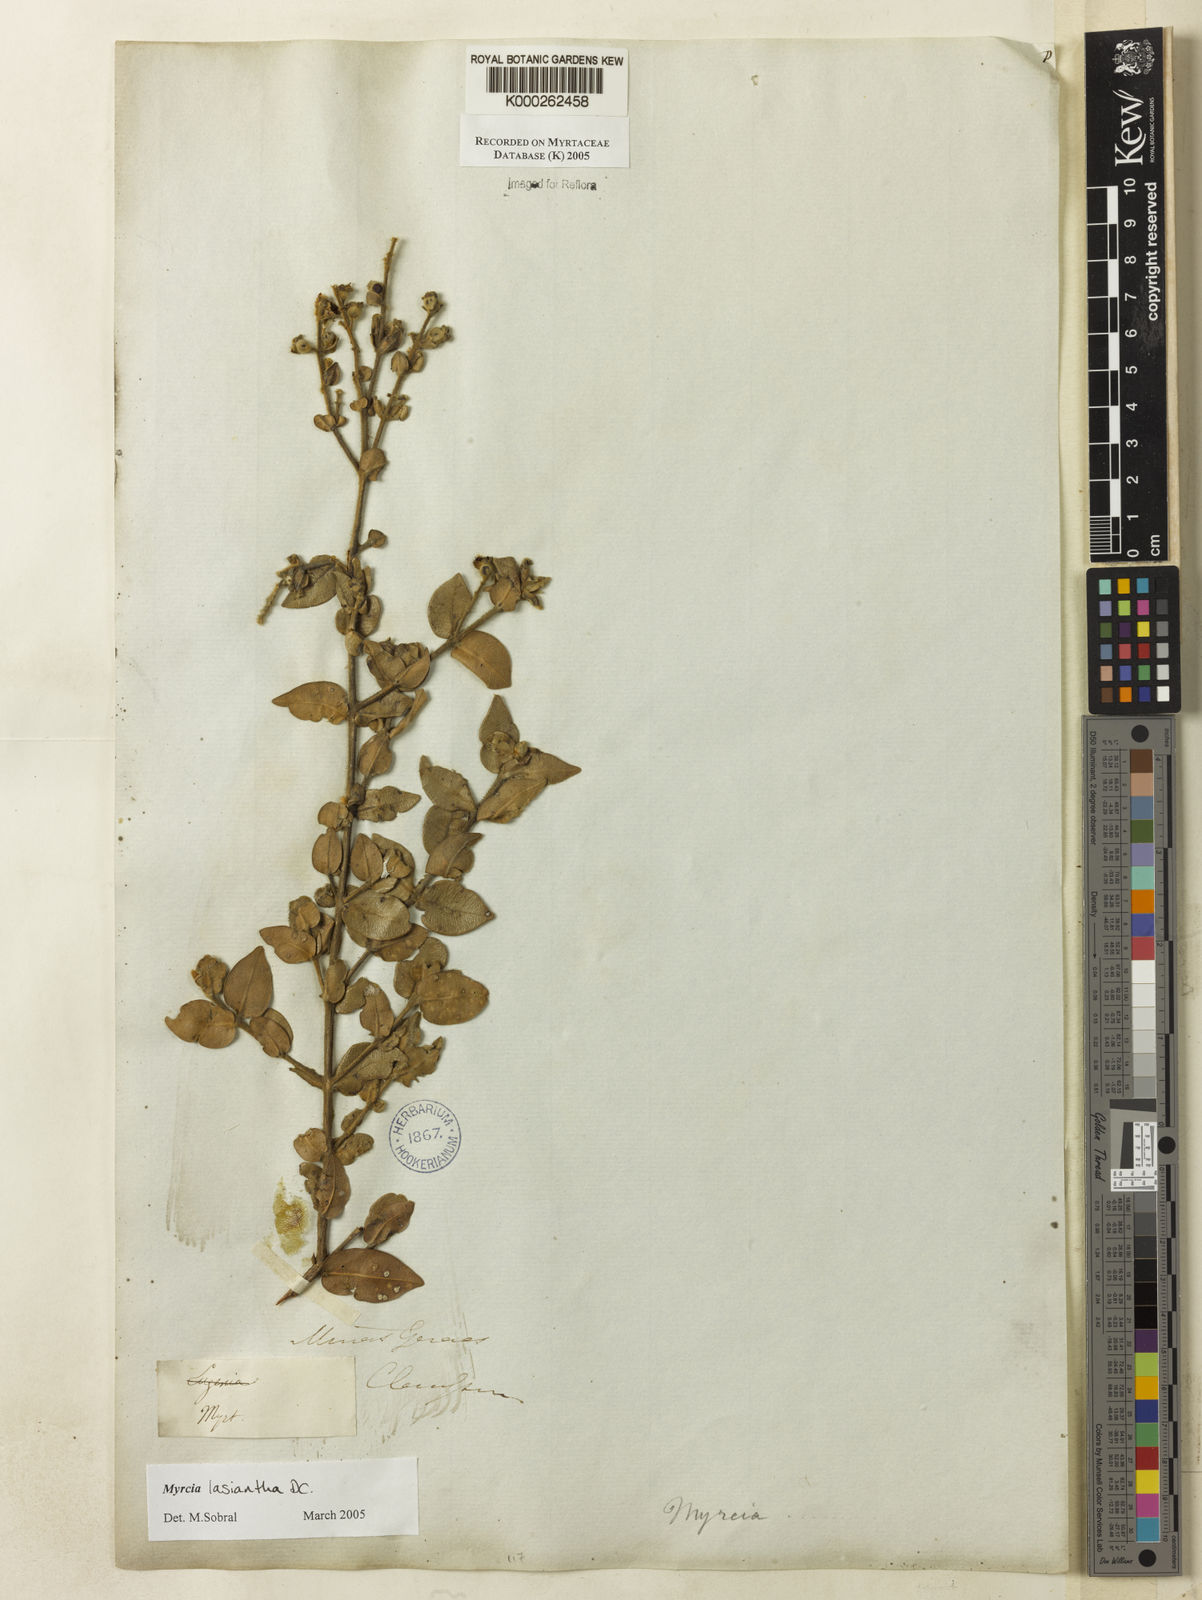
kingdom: Plantae
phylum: Tracheophyta
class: Magnoliopsida
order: Myrtales
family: Myrtaceae
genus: Myrcia
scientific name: Myrcia lasiantha
